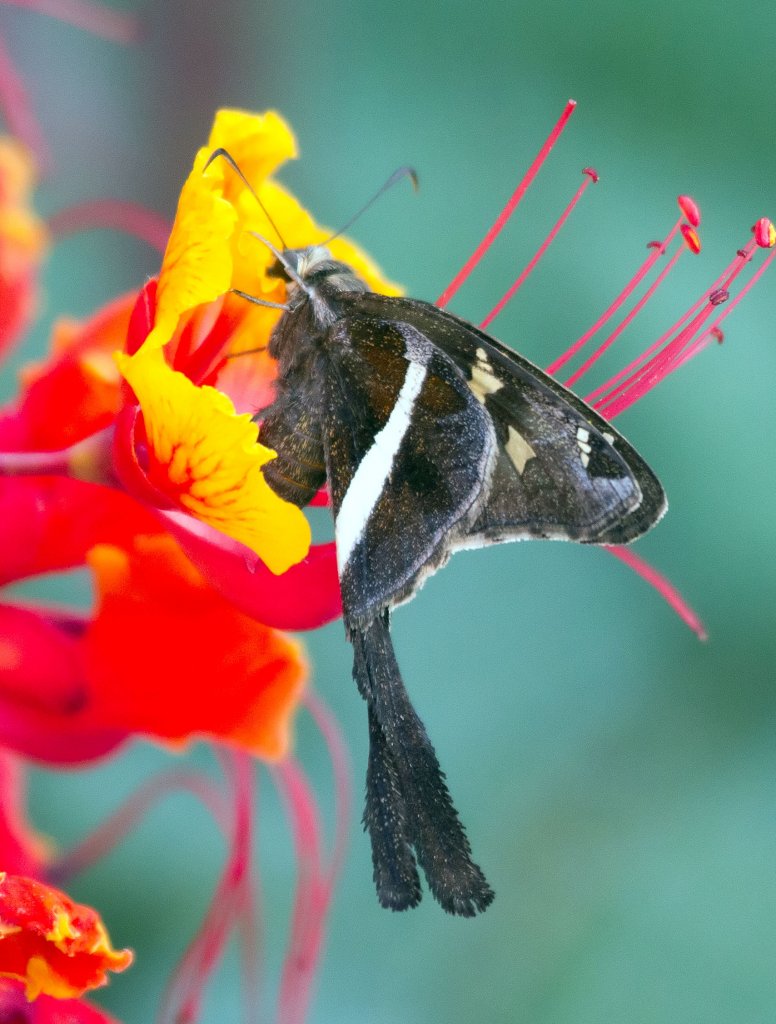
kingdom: Animalia
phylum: Arthropoda
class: Insecta
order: Lepidoptera
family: Hesperiidae
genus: Chioides
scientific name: Chioides catillus
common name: White-striped Longtail
